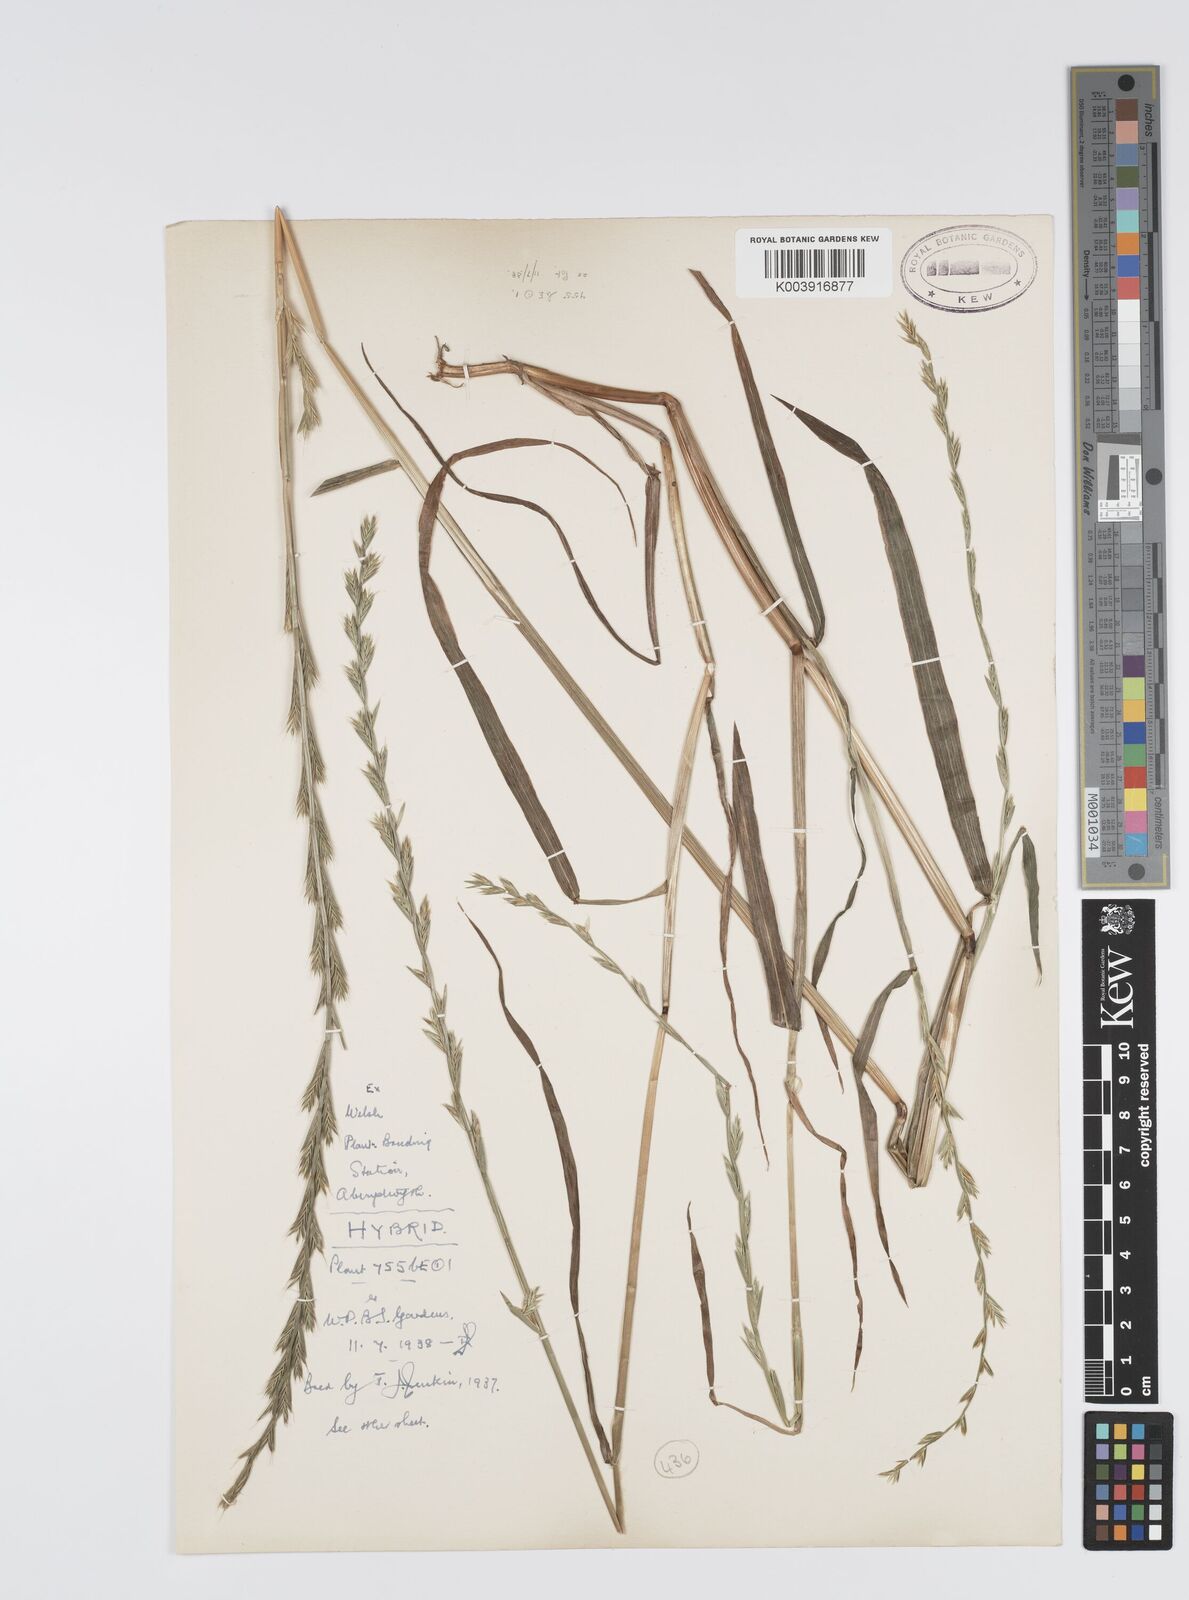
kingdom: Plantae
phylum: Tracheophyta
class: Liliopsida
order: Poales
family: Poaceae
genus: Lolium
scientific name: Lolium multiflorum
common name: Annual ryegrass
